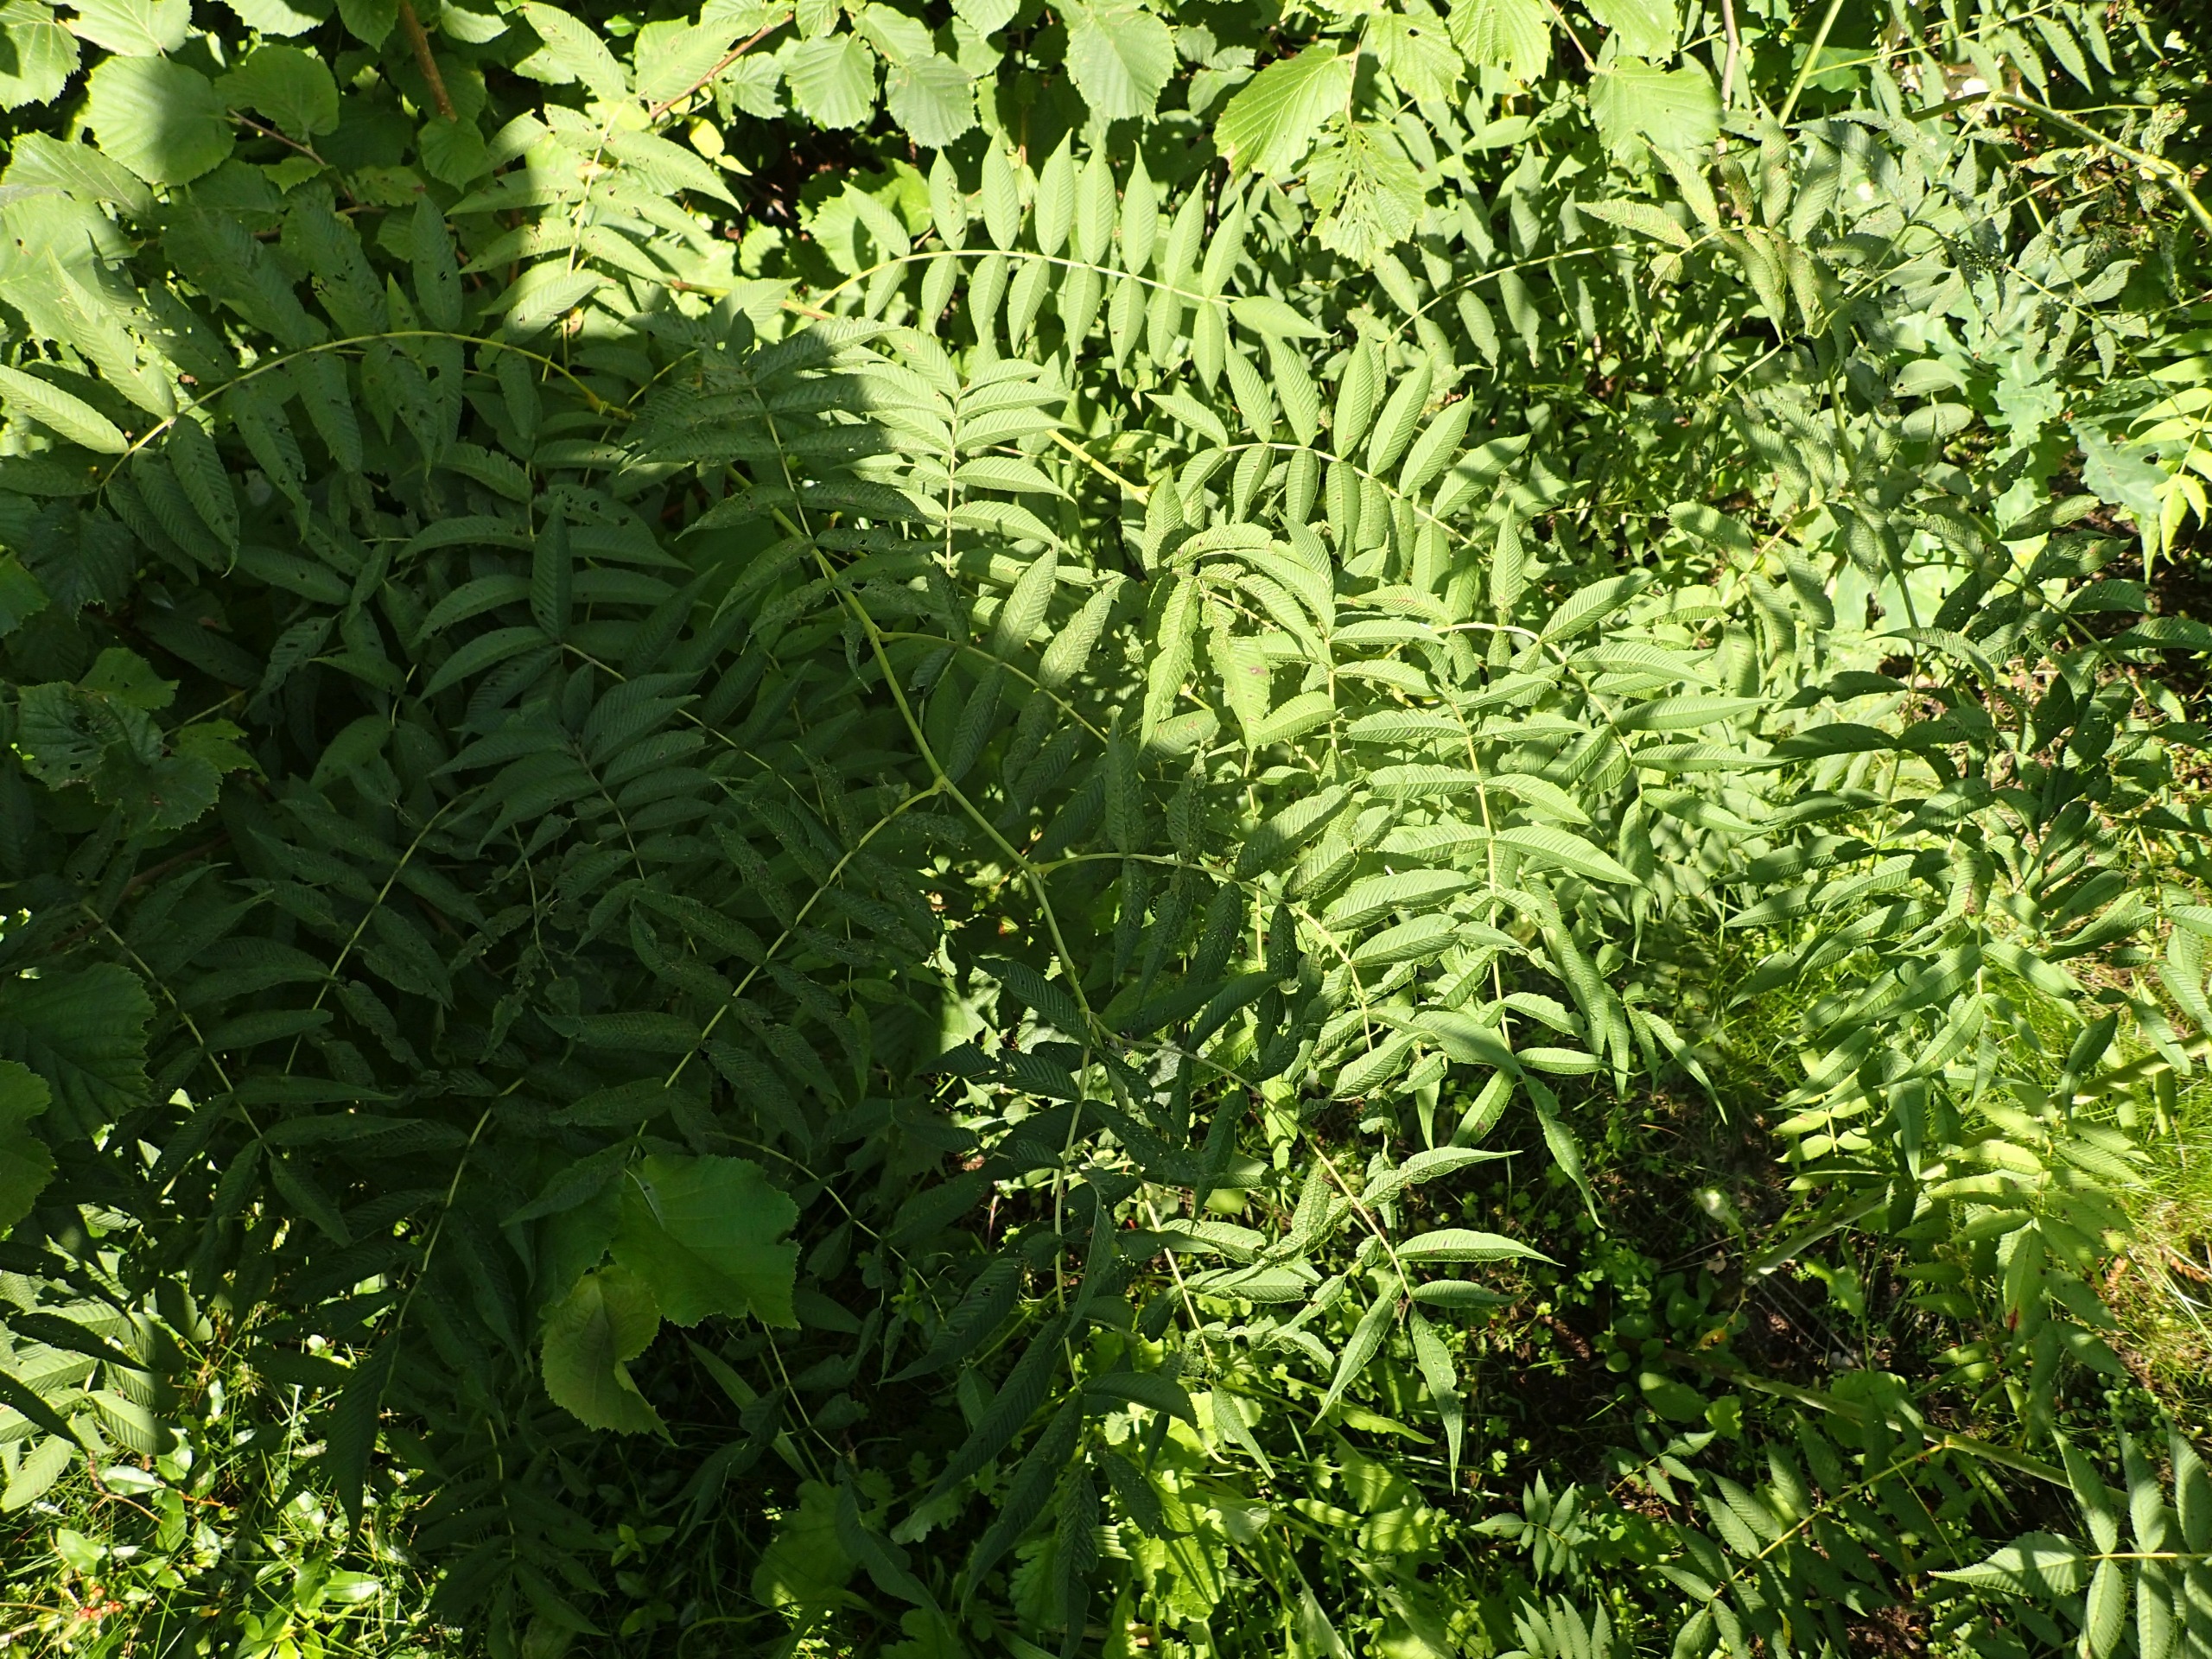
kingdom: Plantae
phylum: Tracheophyta
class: Magnoliopsida
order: Rosales
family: Rosaceae
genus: Sorbaria
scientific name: Sorbaria
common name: Tusindtopslægten
